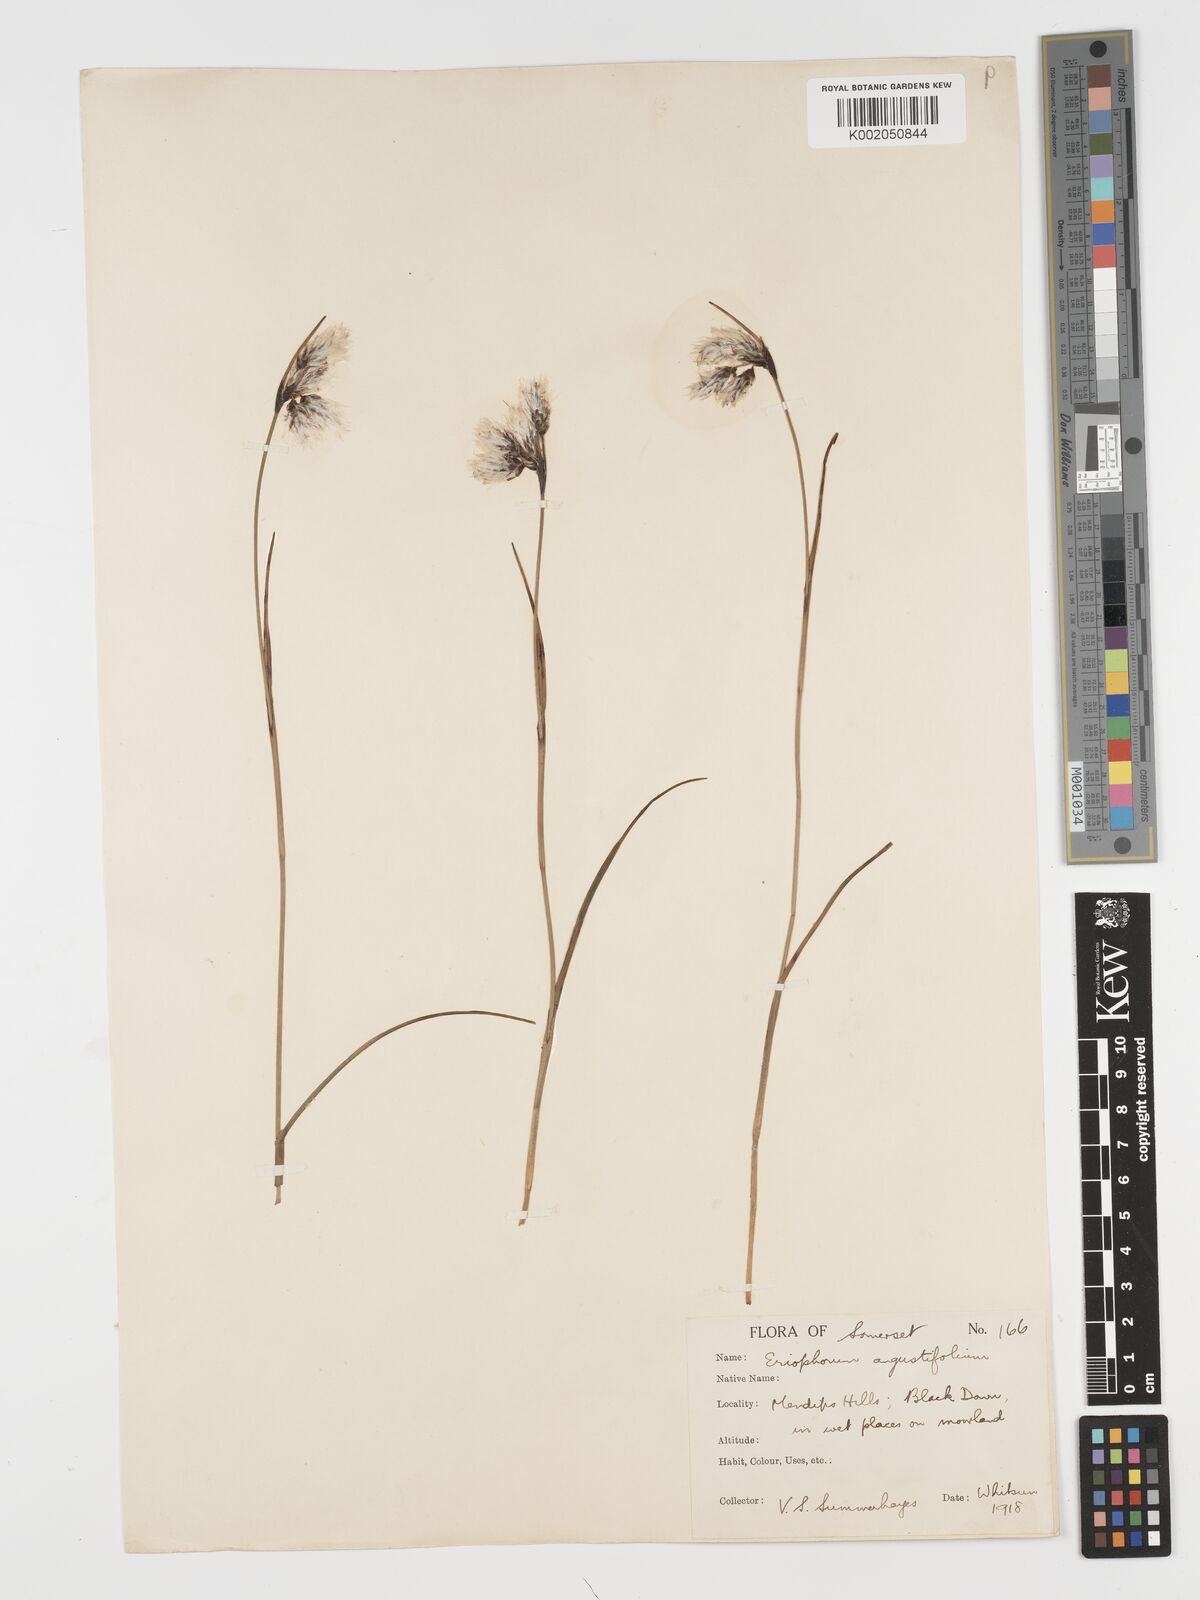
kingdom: Plantae
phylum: Tracheophyta
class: Liliopsida
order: Poales
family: Cyperaceae
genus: Eriophorum
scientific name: Eriophorum angustifolium
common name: Common cottongrass
